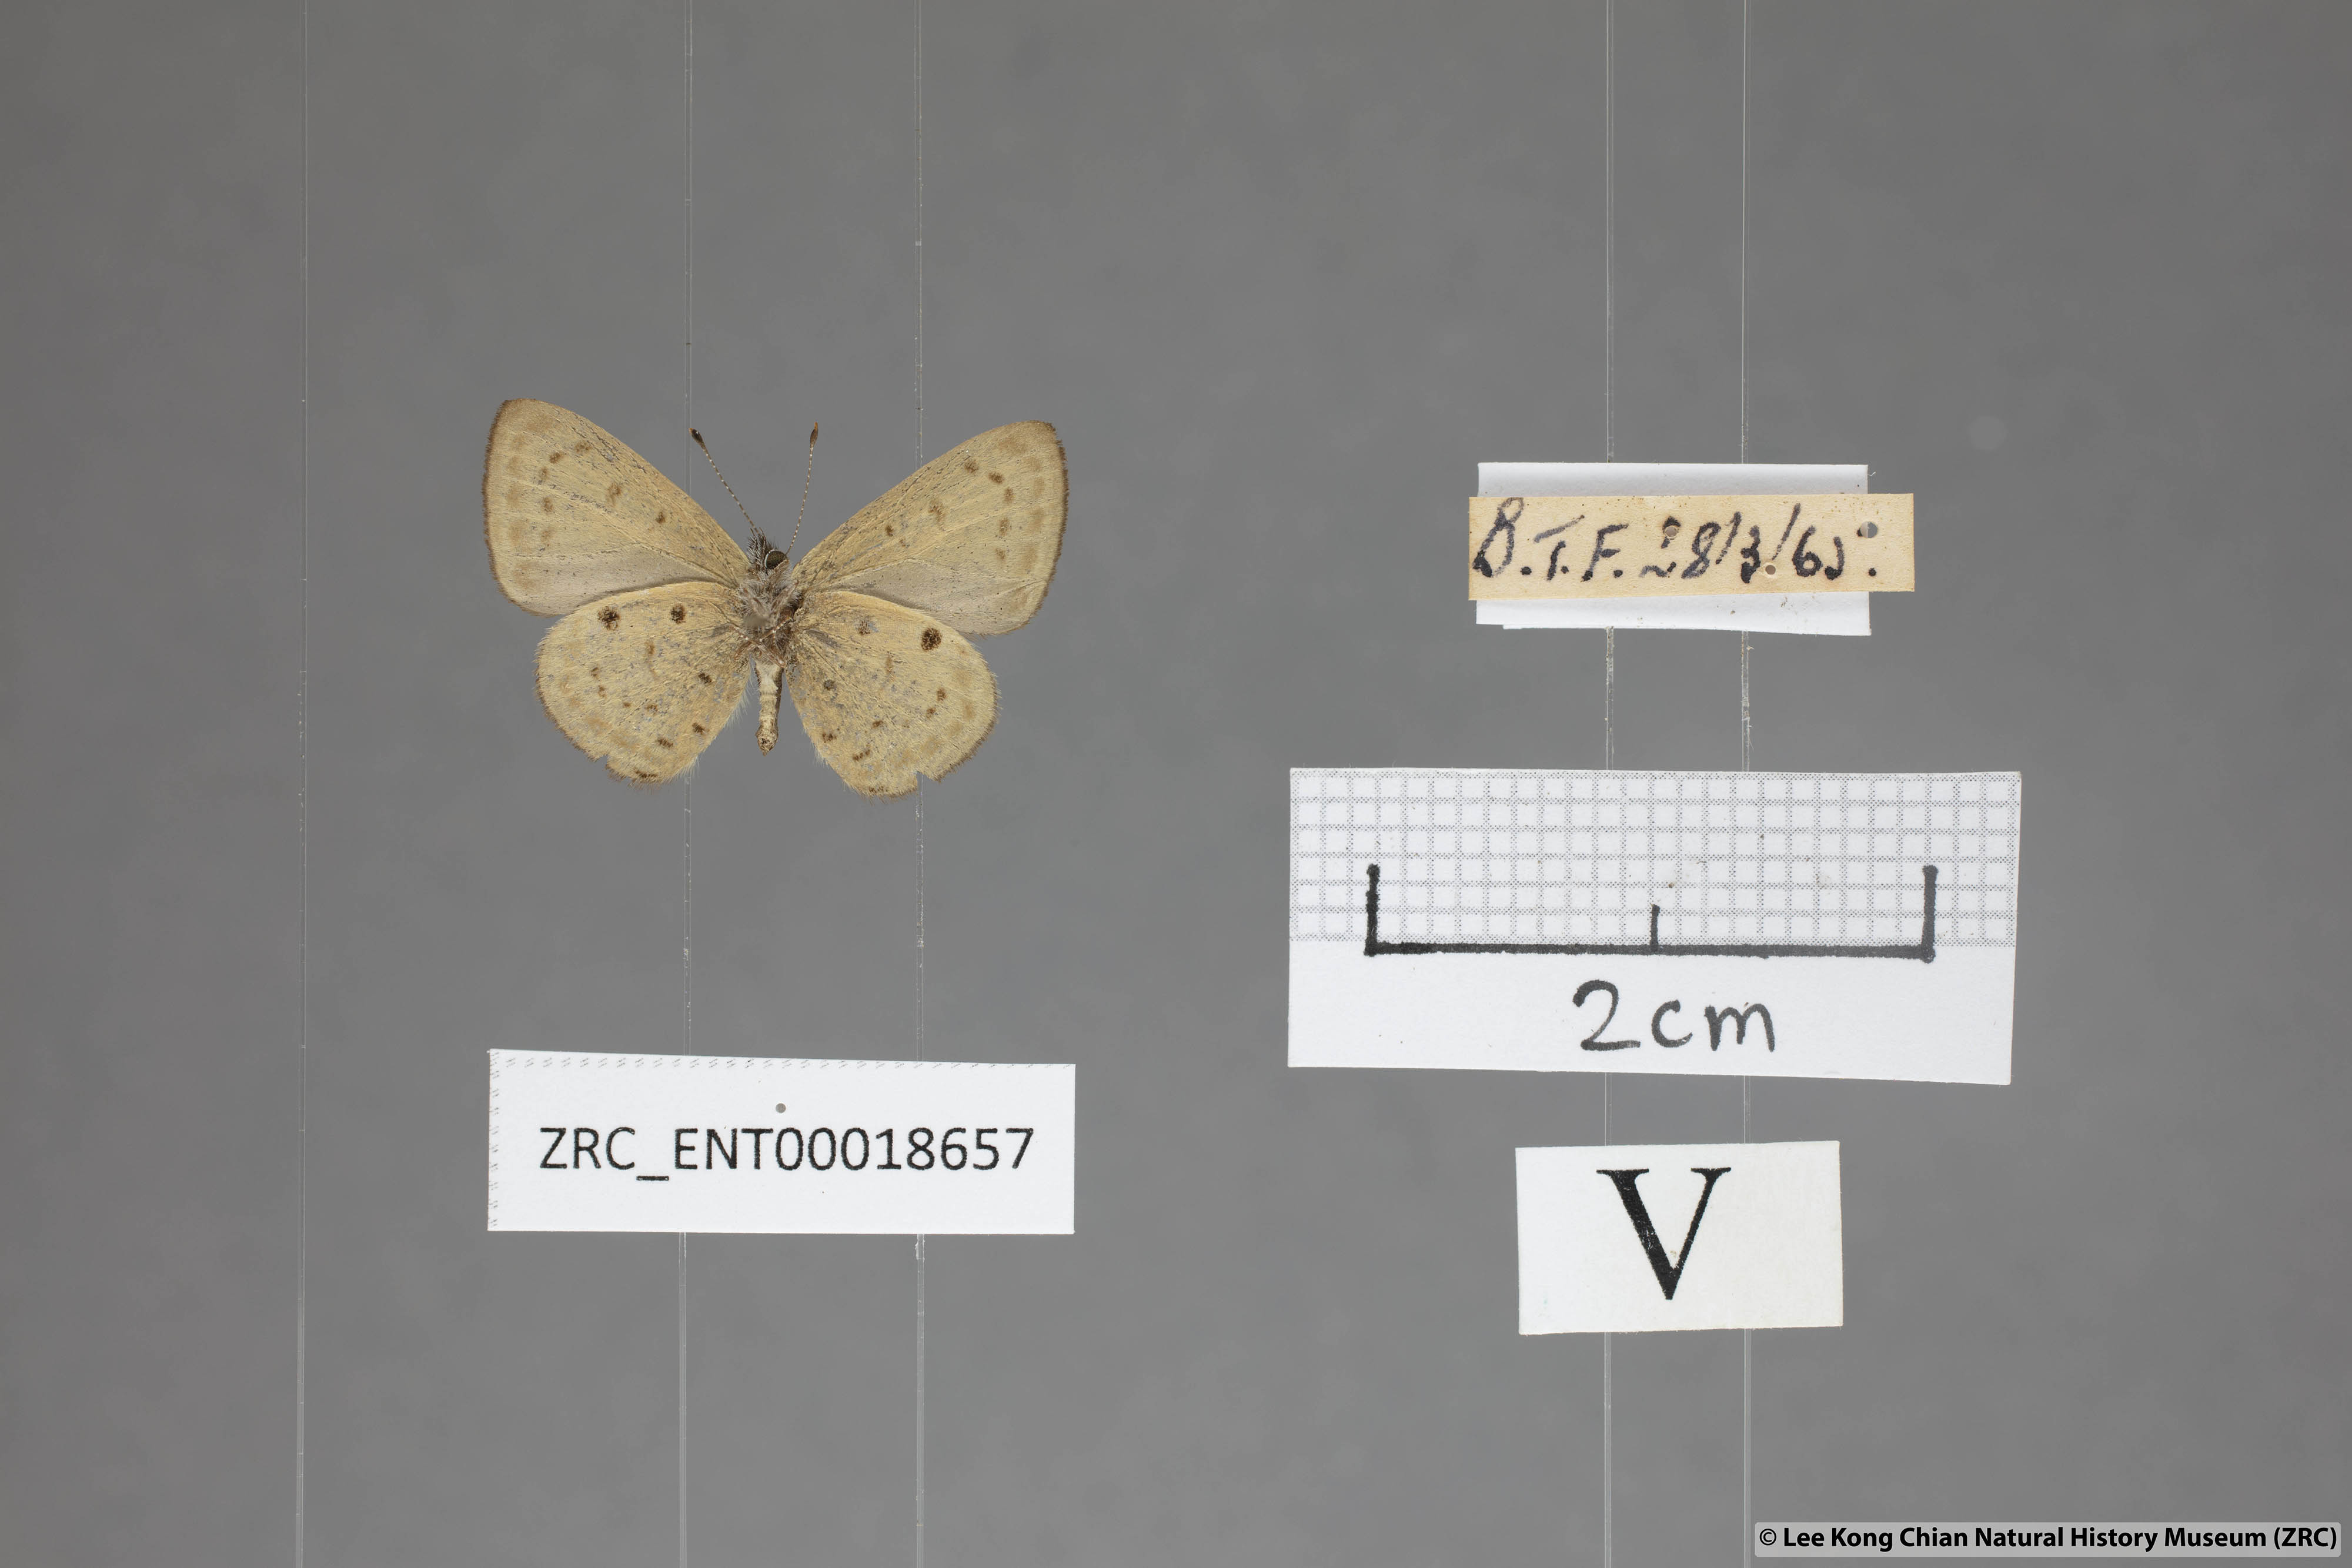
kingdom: Animalia
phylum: Arthropoda
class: Insecta
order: Lepidoptera
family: Lycaenidae
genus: Una
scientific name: Una usta
